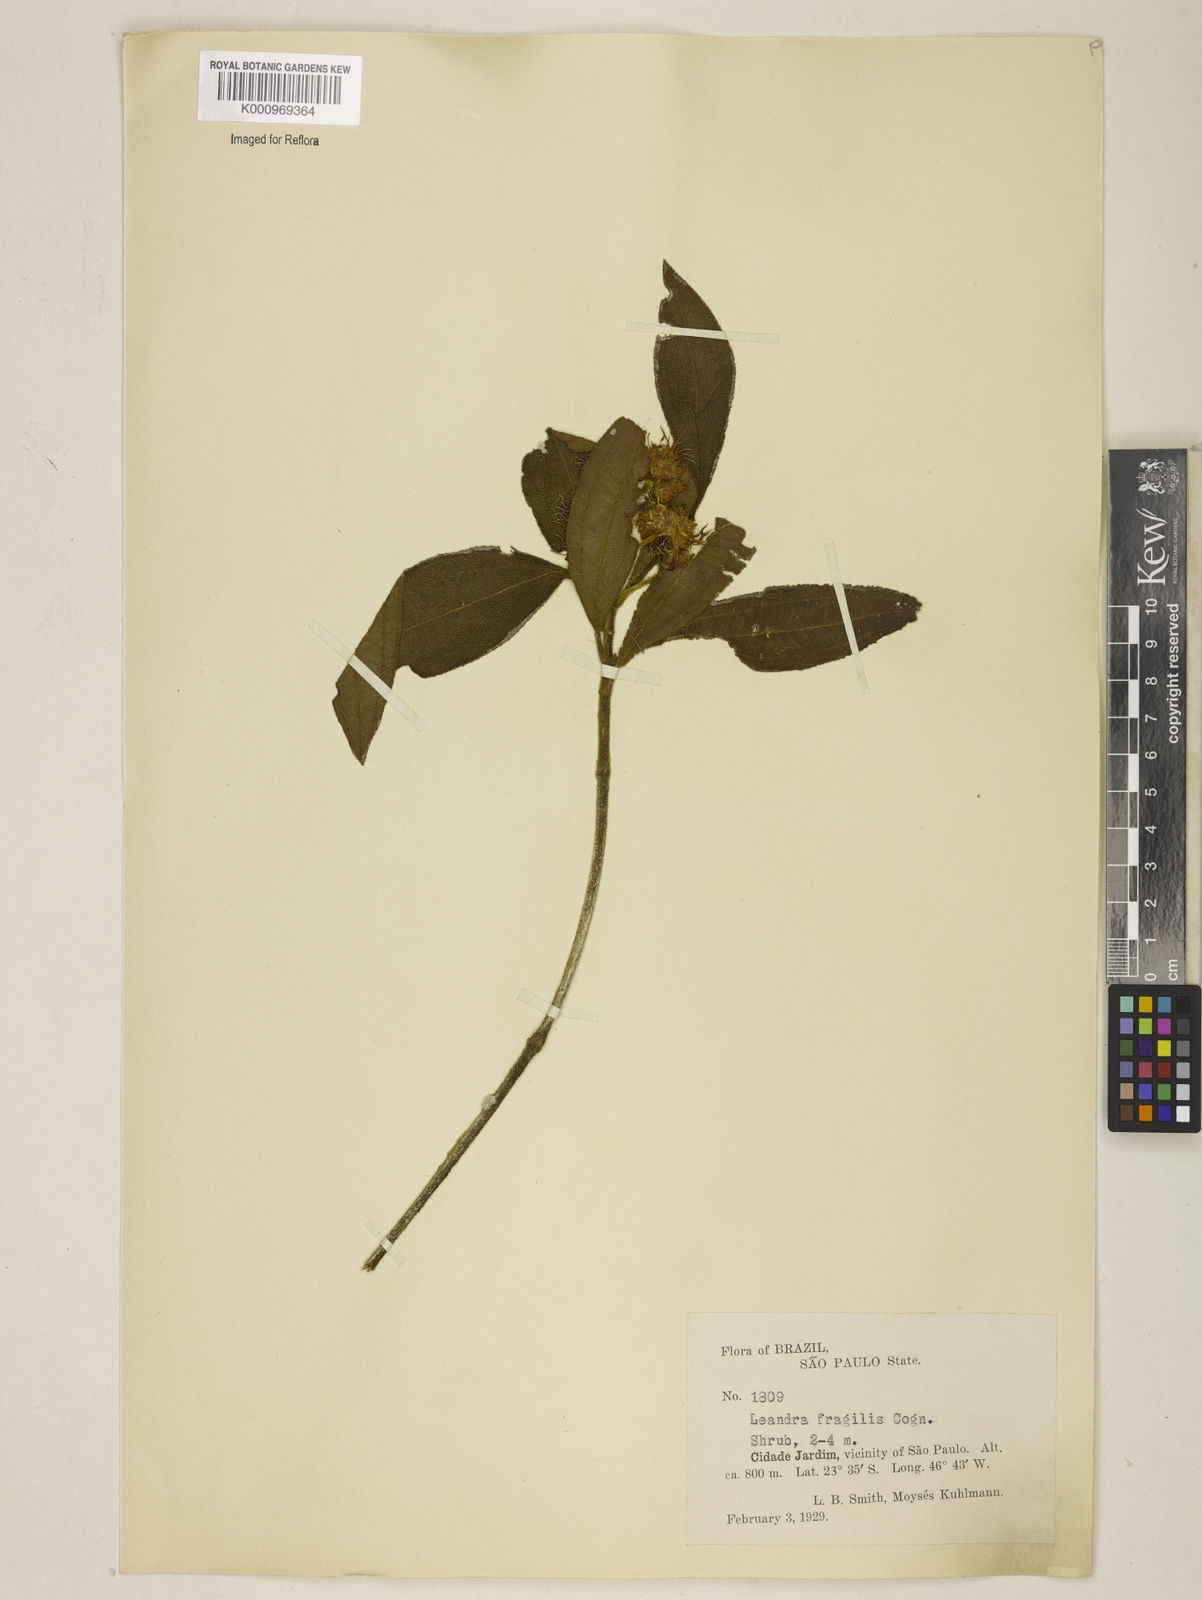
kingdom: Plantae
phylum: Tracheophyta
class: Magnoliopsida
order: Myrtales
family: Melastomataceae
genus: Miconia
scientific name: Miconia melastomoides
